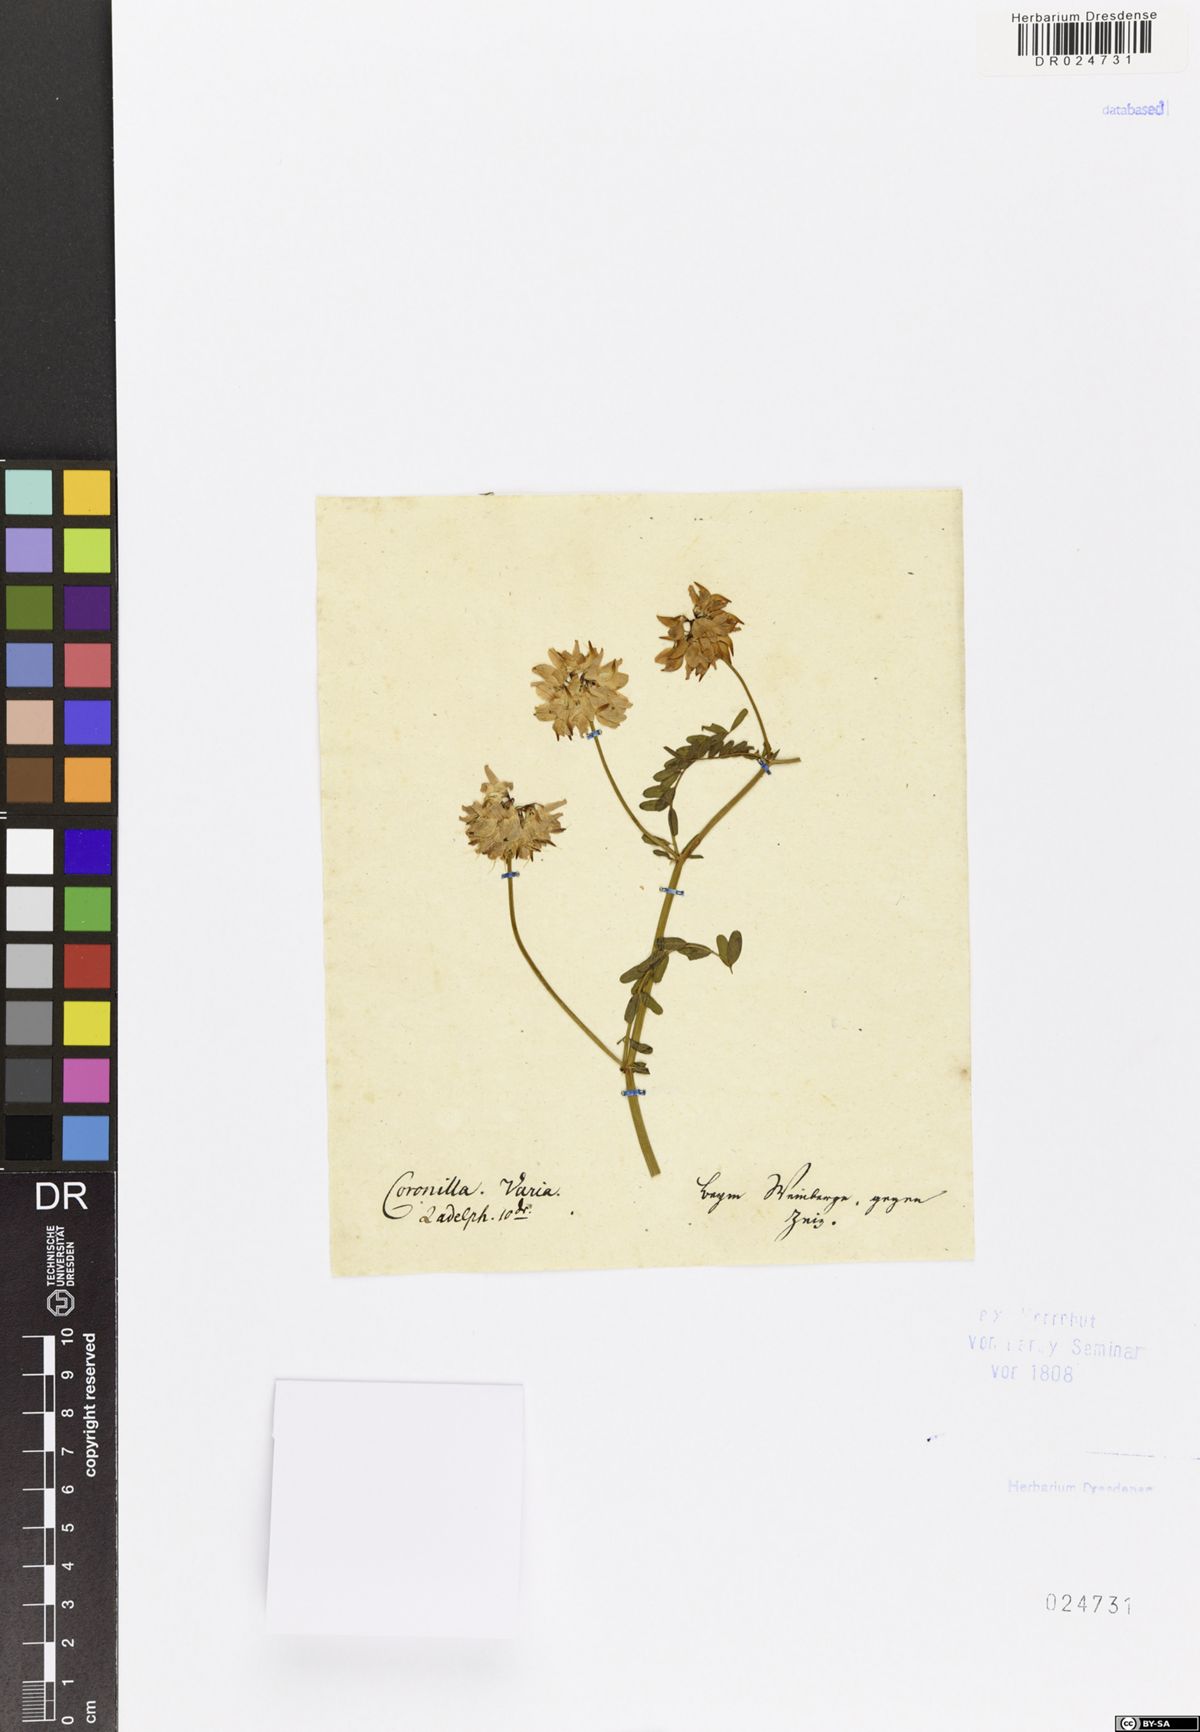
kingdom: Plantae
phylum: Tracheophyta
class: Magnoliopsida
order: Fabales
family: Fabaceae
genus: Coronilla
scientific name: Coronilla varia
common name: Crownvetch
